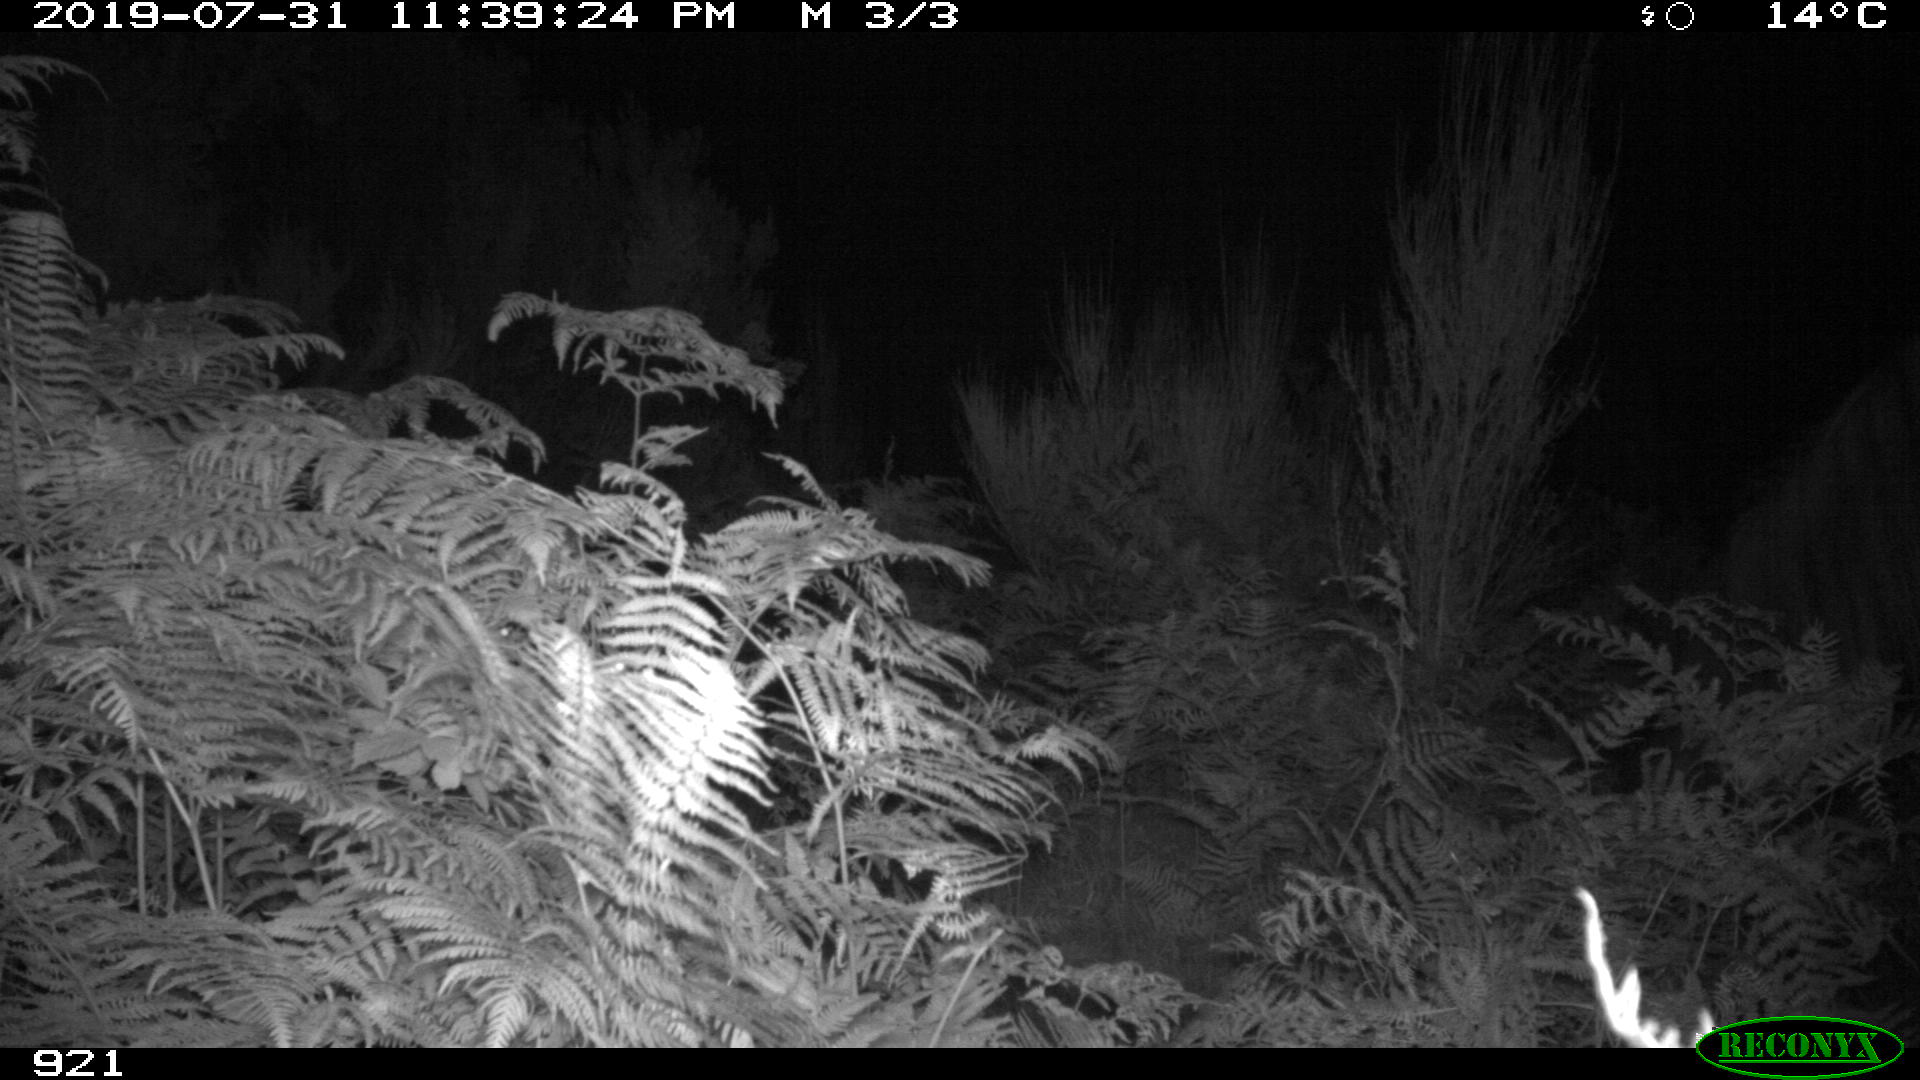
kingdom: Animalia
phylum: Chordata
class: Mammalia
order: Perissodactyla
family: Equidae
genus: Equus
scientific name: Equus caballus
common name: Horse
